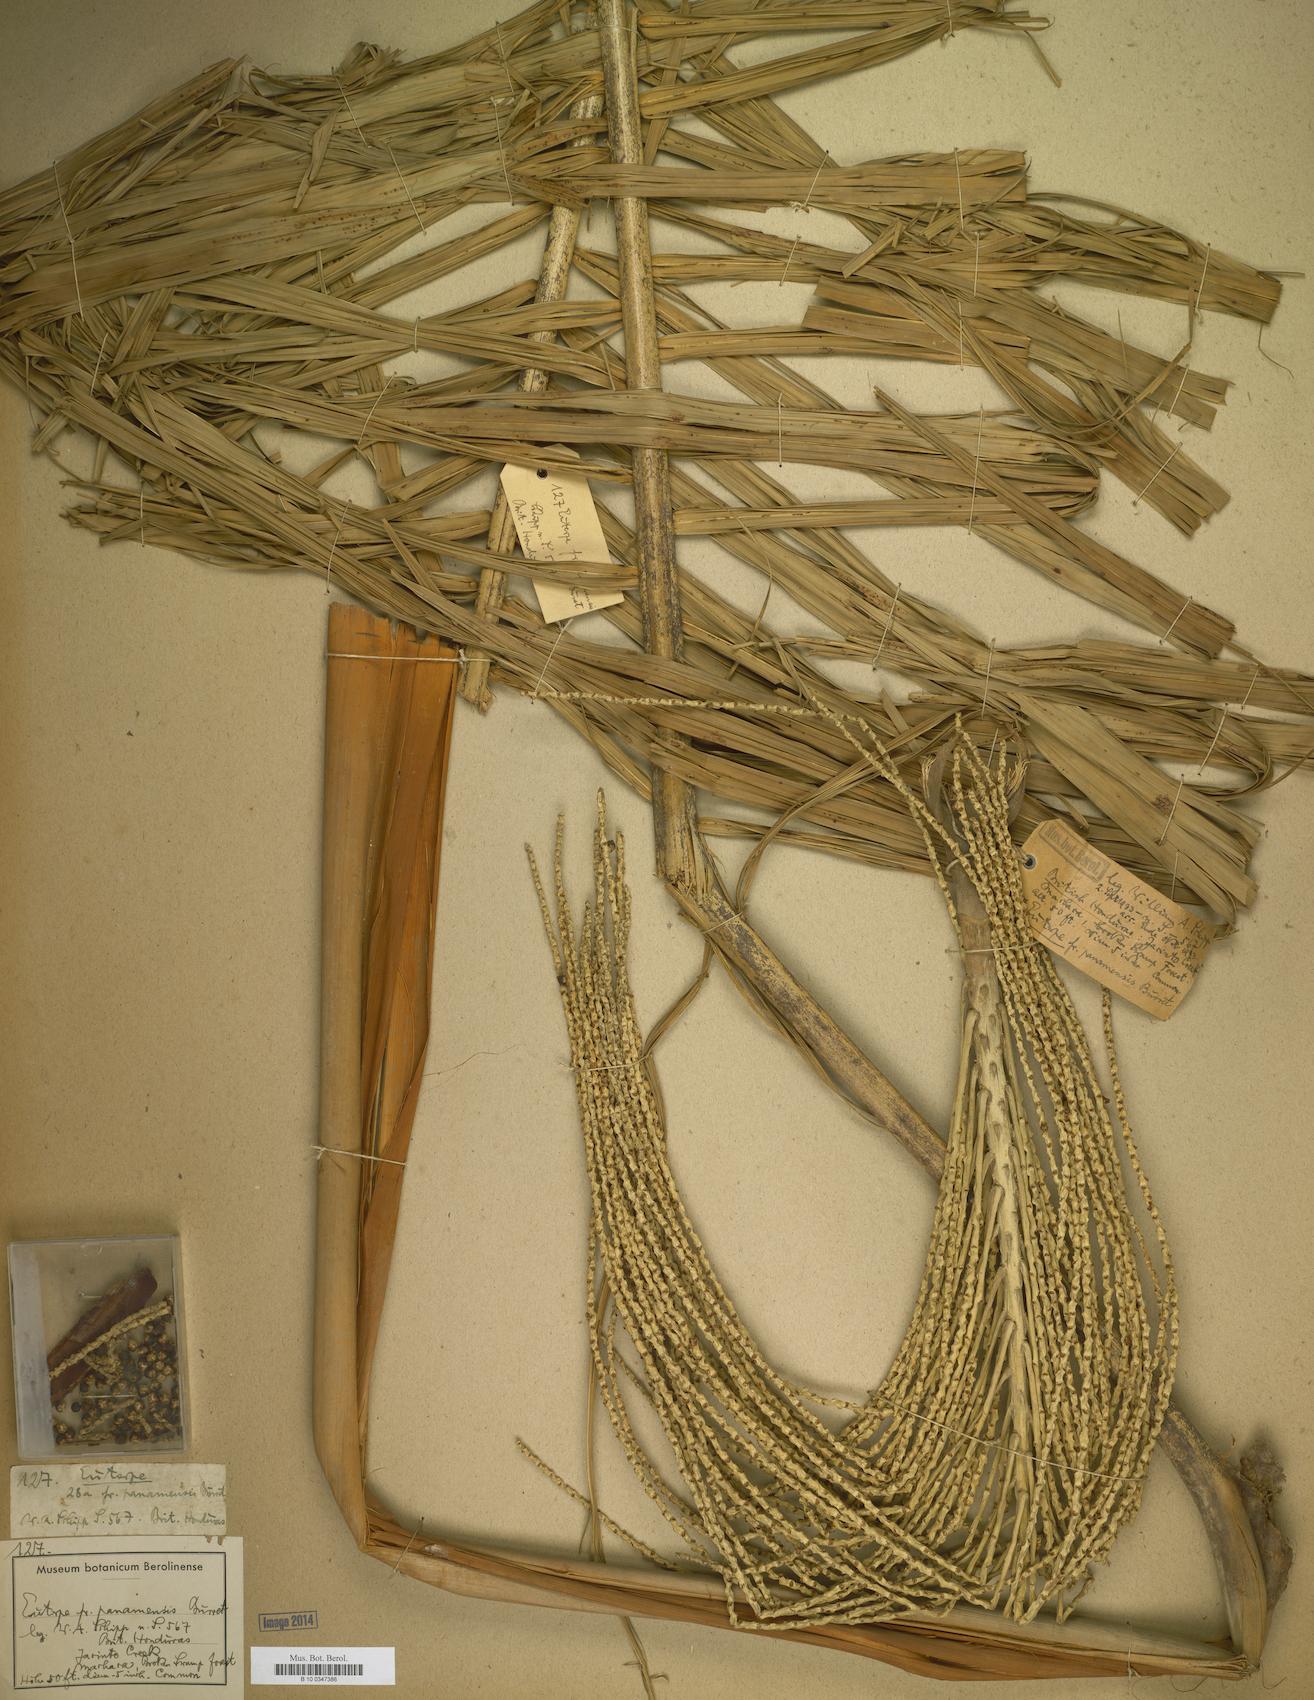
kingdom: Plantae
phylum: Tracheophyta
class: Liliopsida
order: Arecales
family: Arecaceae
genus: Euterpe
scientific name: Euterpe precatoria
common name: Mountain-cabbage
